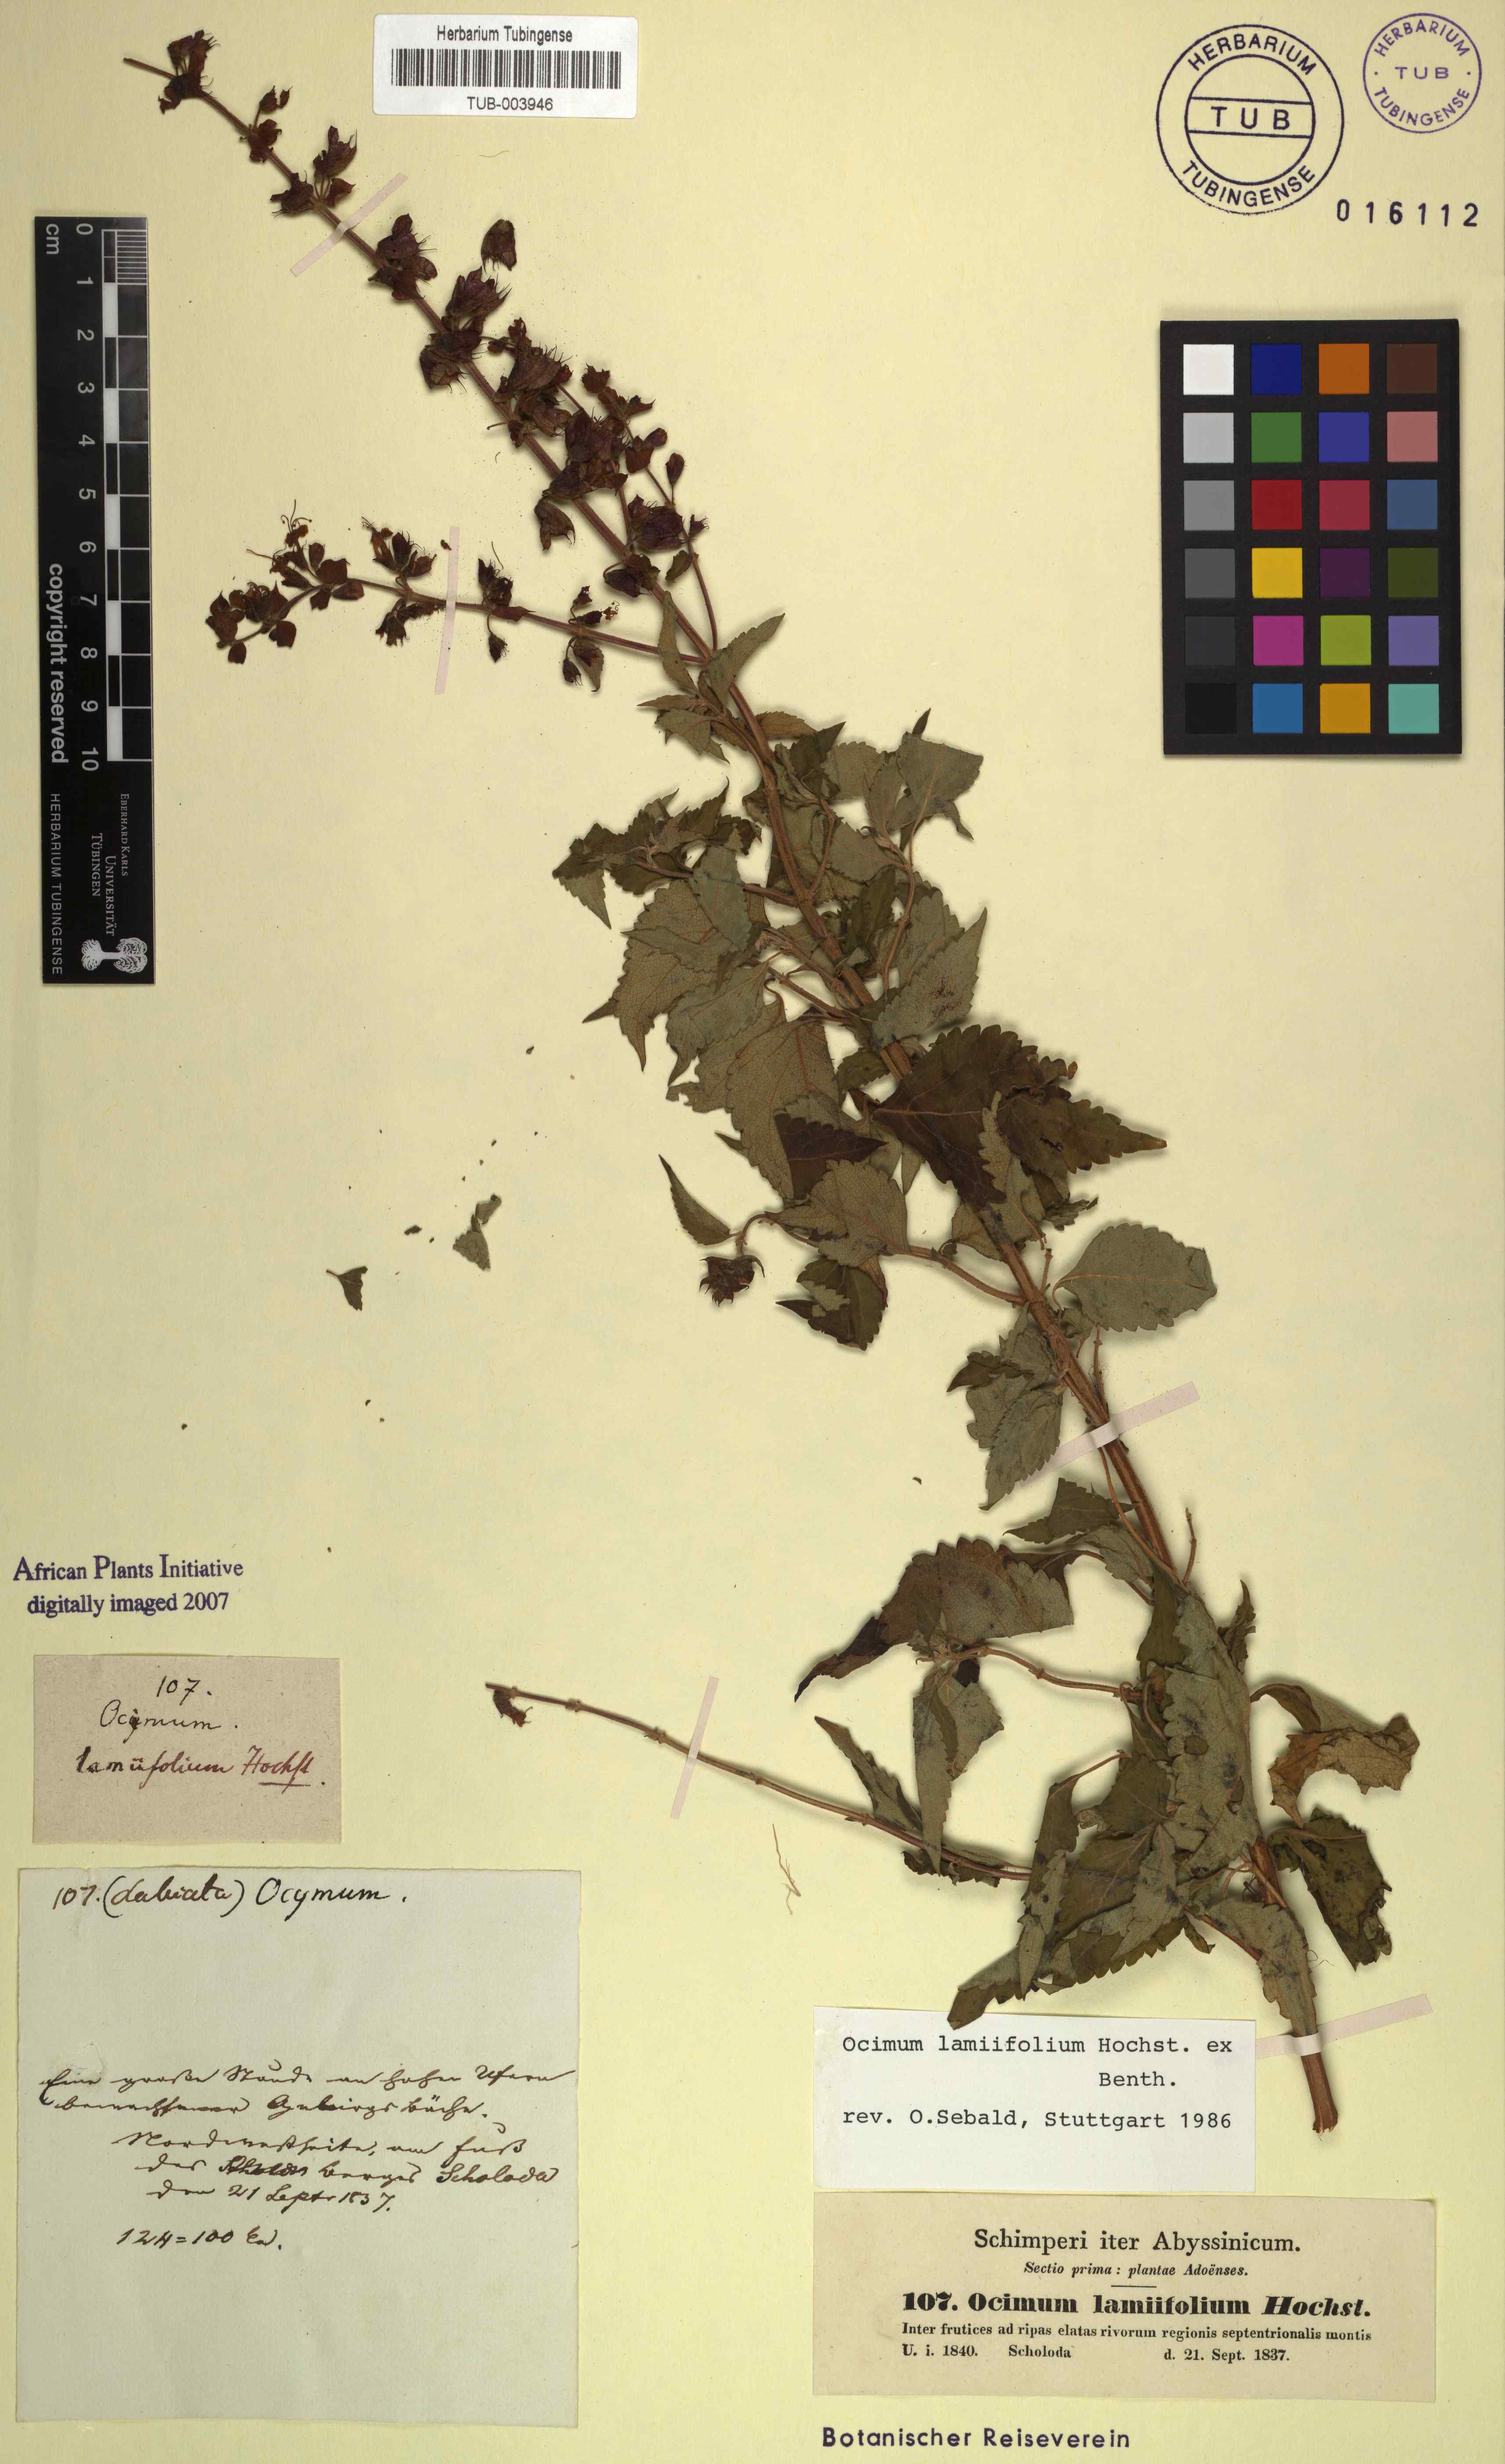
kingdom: Plantae
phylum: Tracheophyta
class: Magnoliopsida
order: Lamiales
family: Lamiaceae
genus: Ocimum
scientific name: Ocimum lamiifolium
